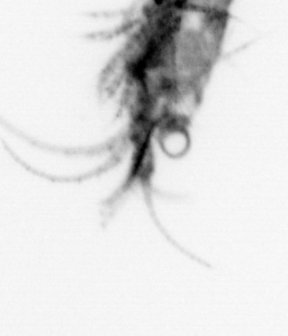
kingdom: Animalia
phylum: Annelida
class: Polychaeta
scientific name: Polychaeta
